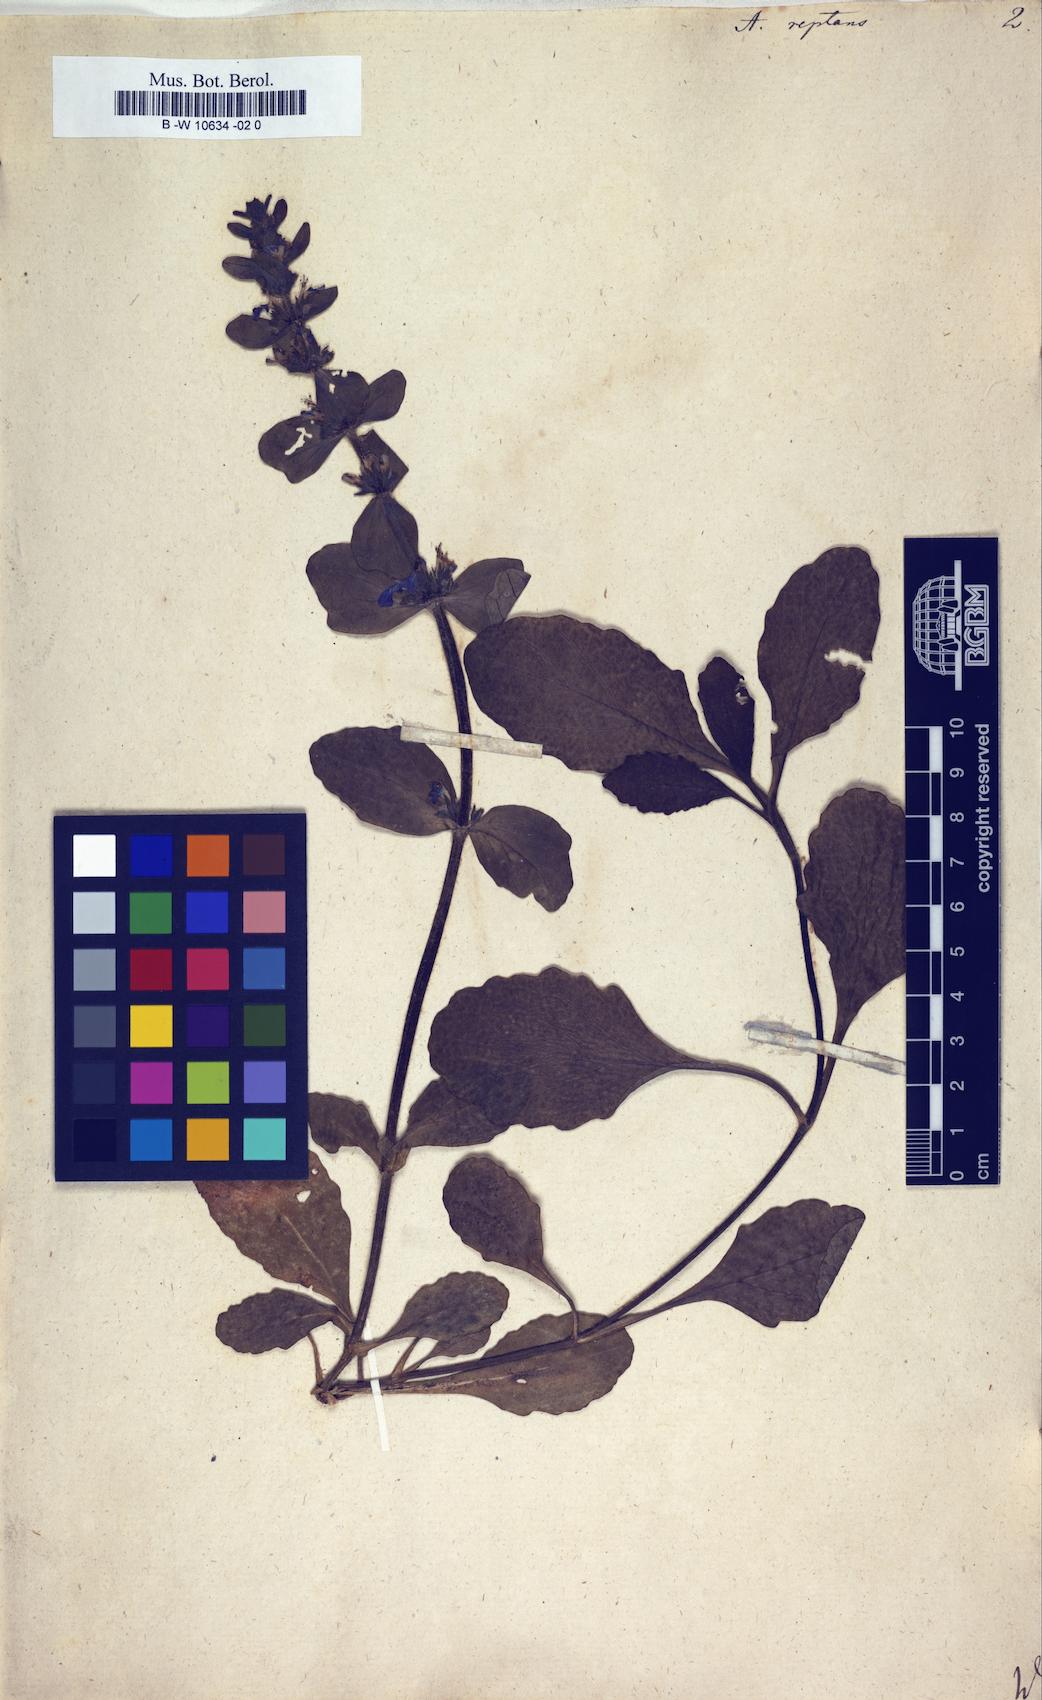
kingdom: Plantae
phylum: Tracheophyta
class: Magnoliopsida
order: Lamiales
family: Lamiaceae
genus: Ajuga
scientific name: Ajuga reptans
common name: Bugle
